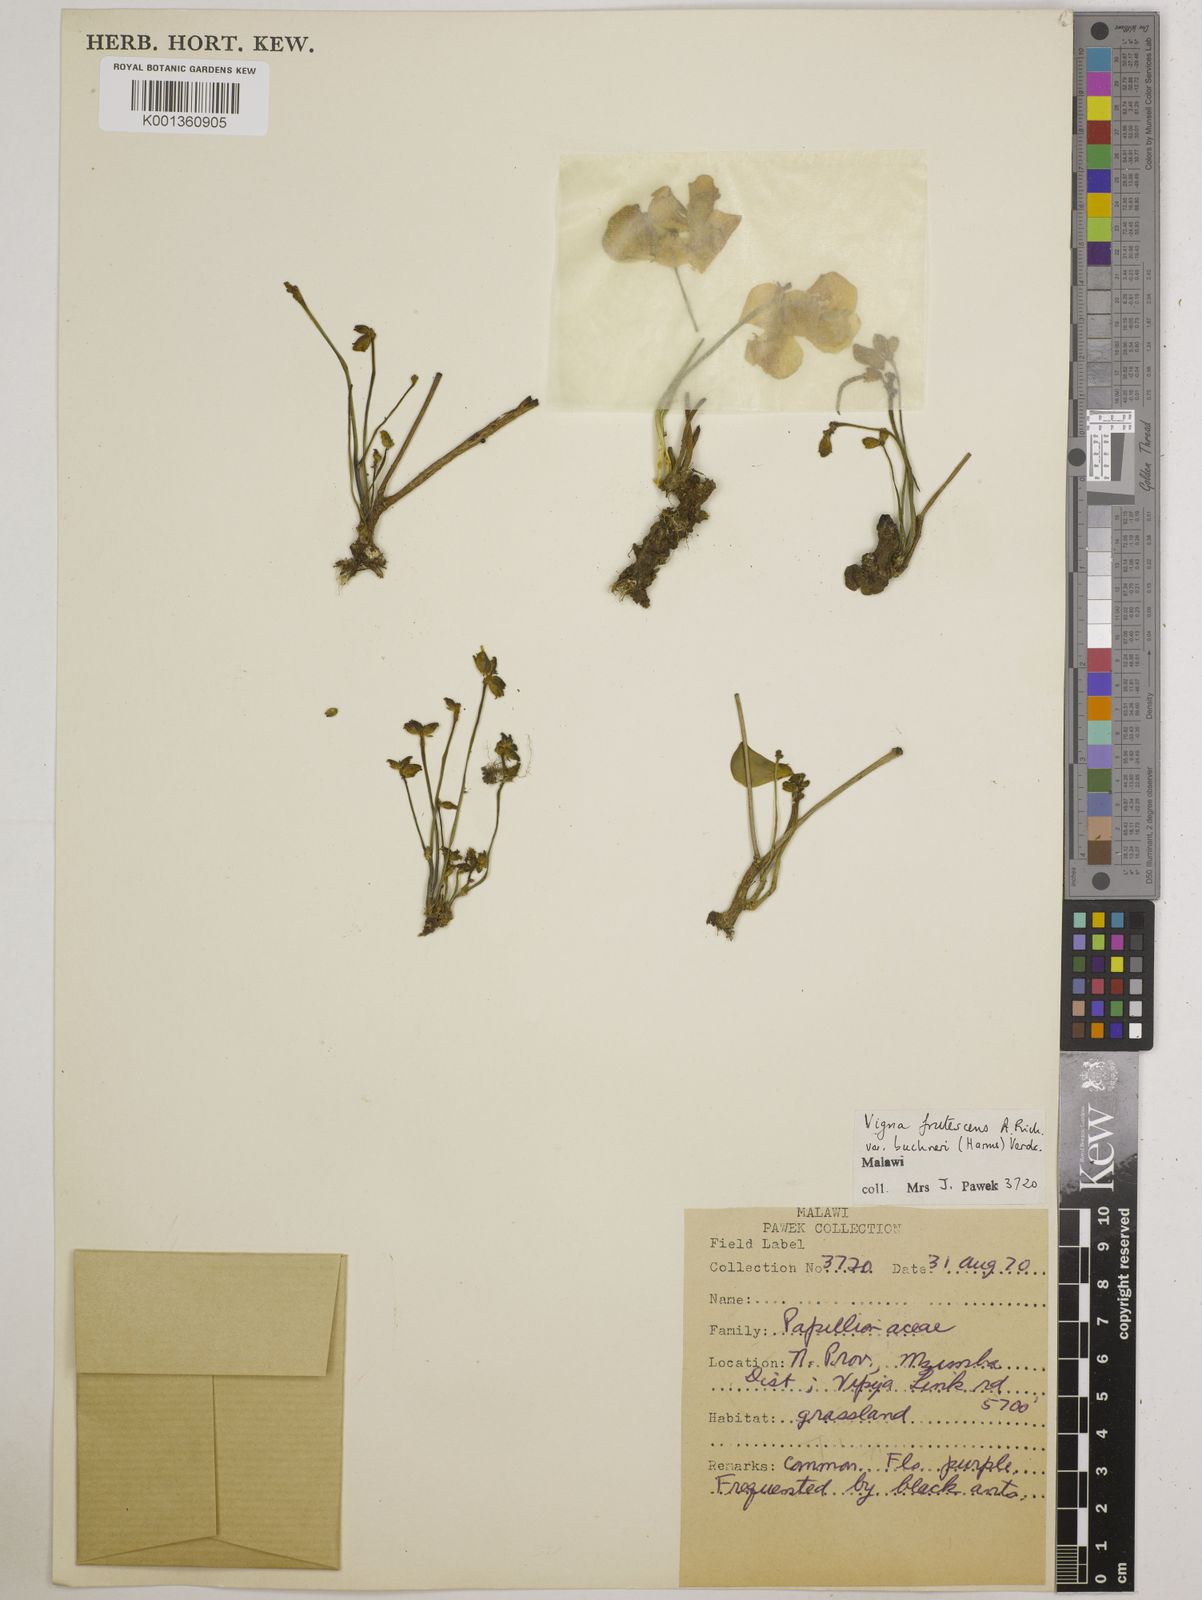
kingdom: Plantae
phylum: Tracheophyta
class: Magnoliopsida
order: Fabales
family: Fabaceae
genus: Vigna
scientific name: Vigna
